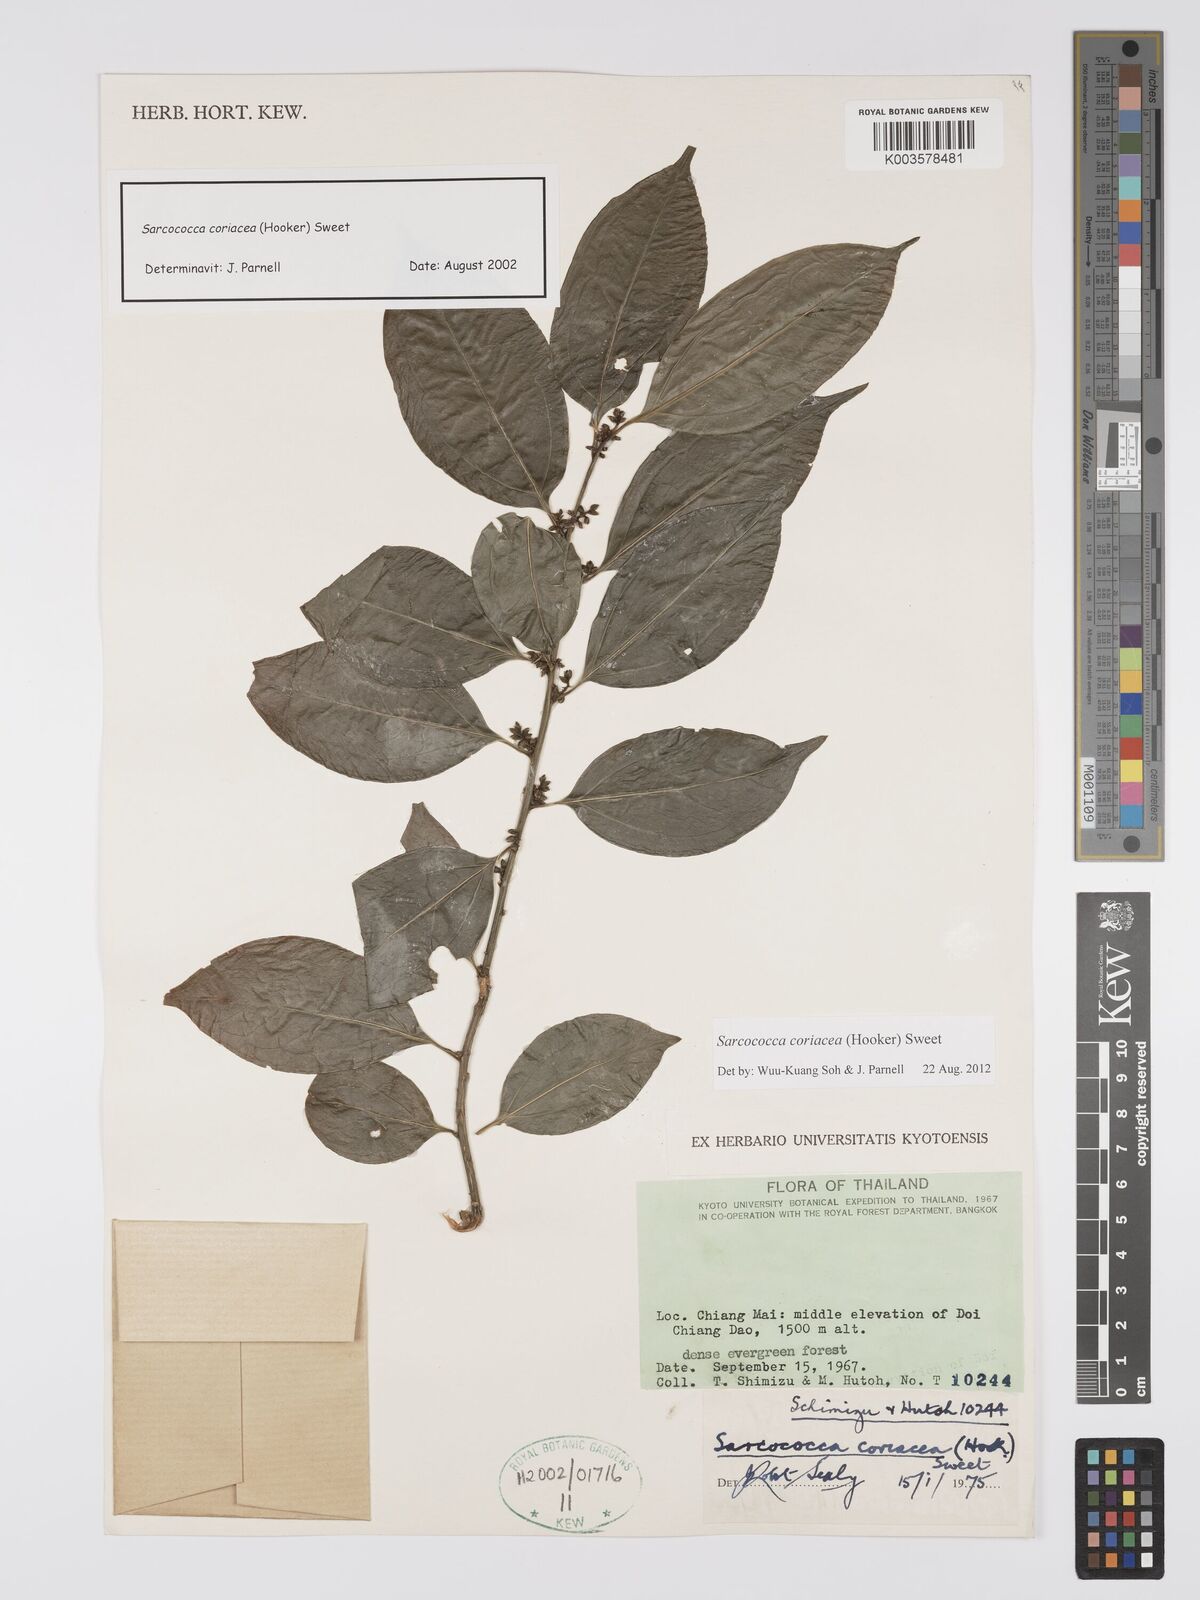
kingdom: Plantae
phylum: Tracheophyta
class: Magnoliopsida
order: Buxales
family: Buxaceae
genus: Sarcococca
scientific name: Sarcococca coriacea
